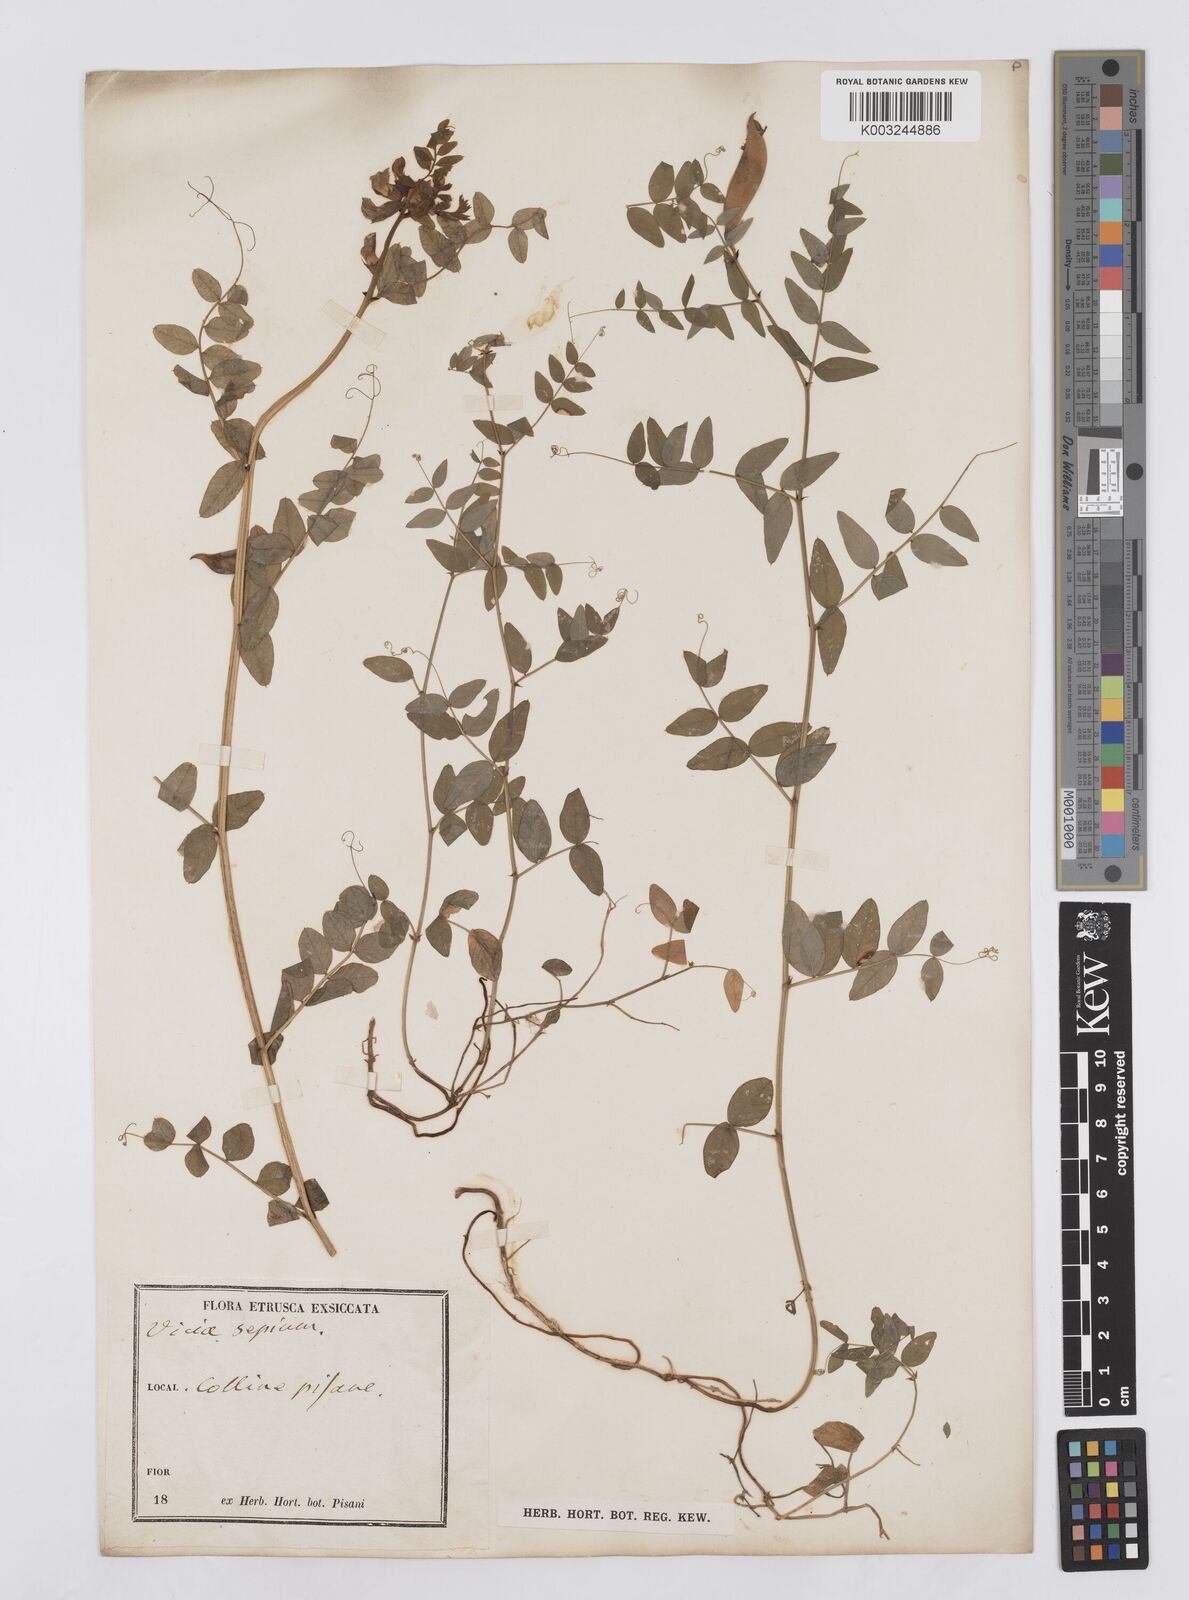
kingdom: Plantae
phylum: Tracheophyta
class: Magnoliopsida
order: Fabales
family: Fabaceae
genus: Vicia
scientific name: Vicia sepium
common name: Bush vetch
